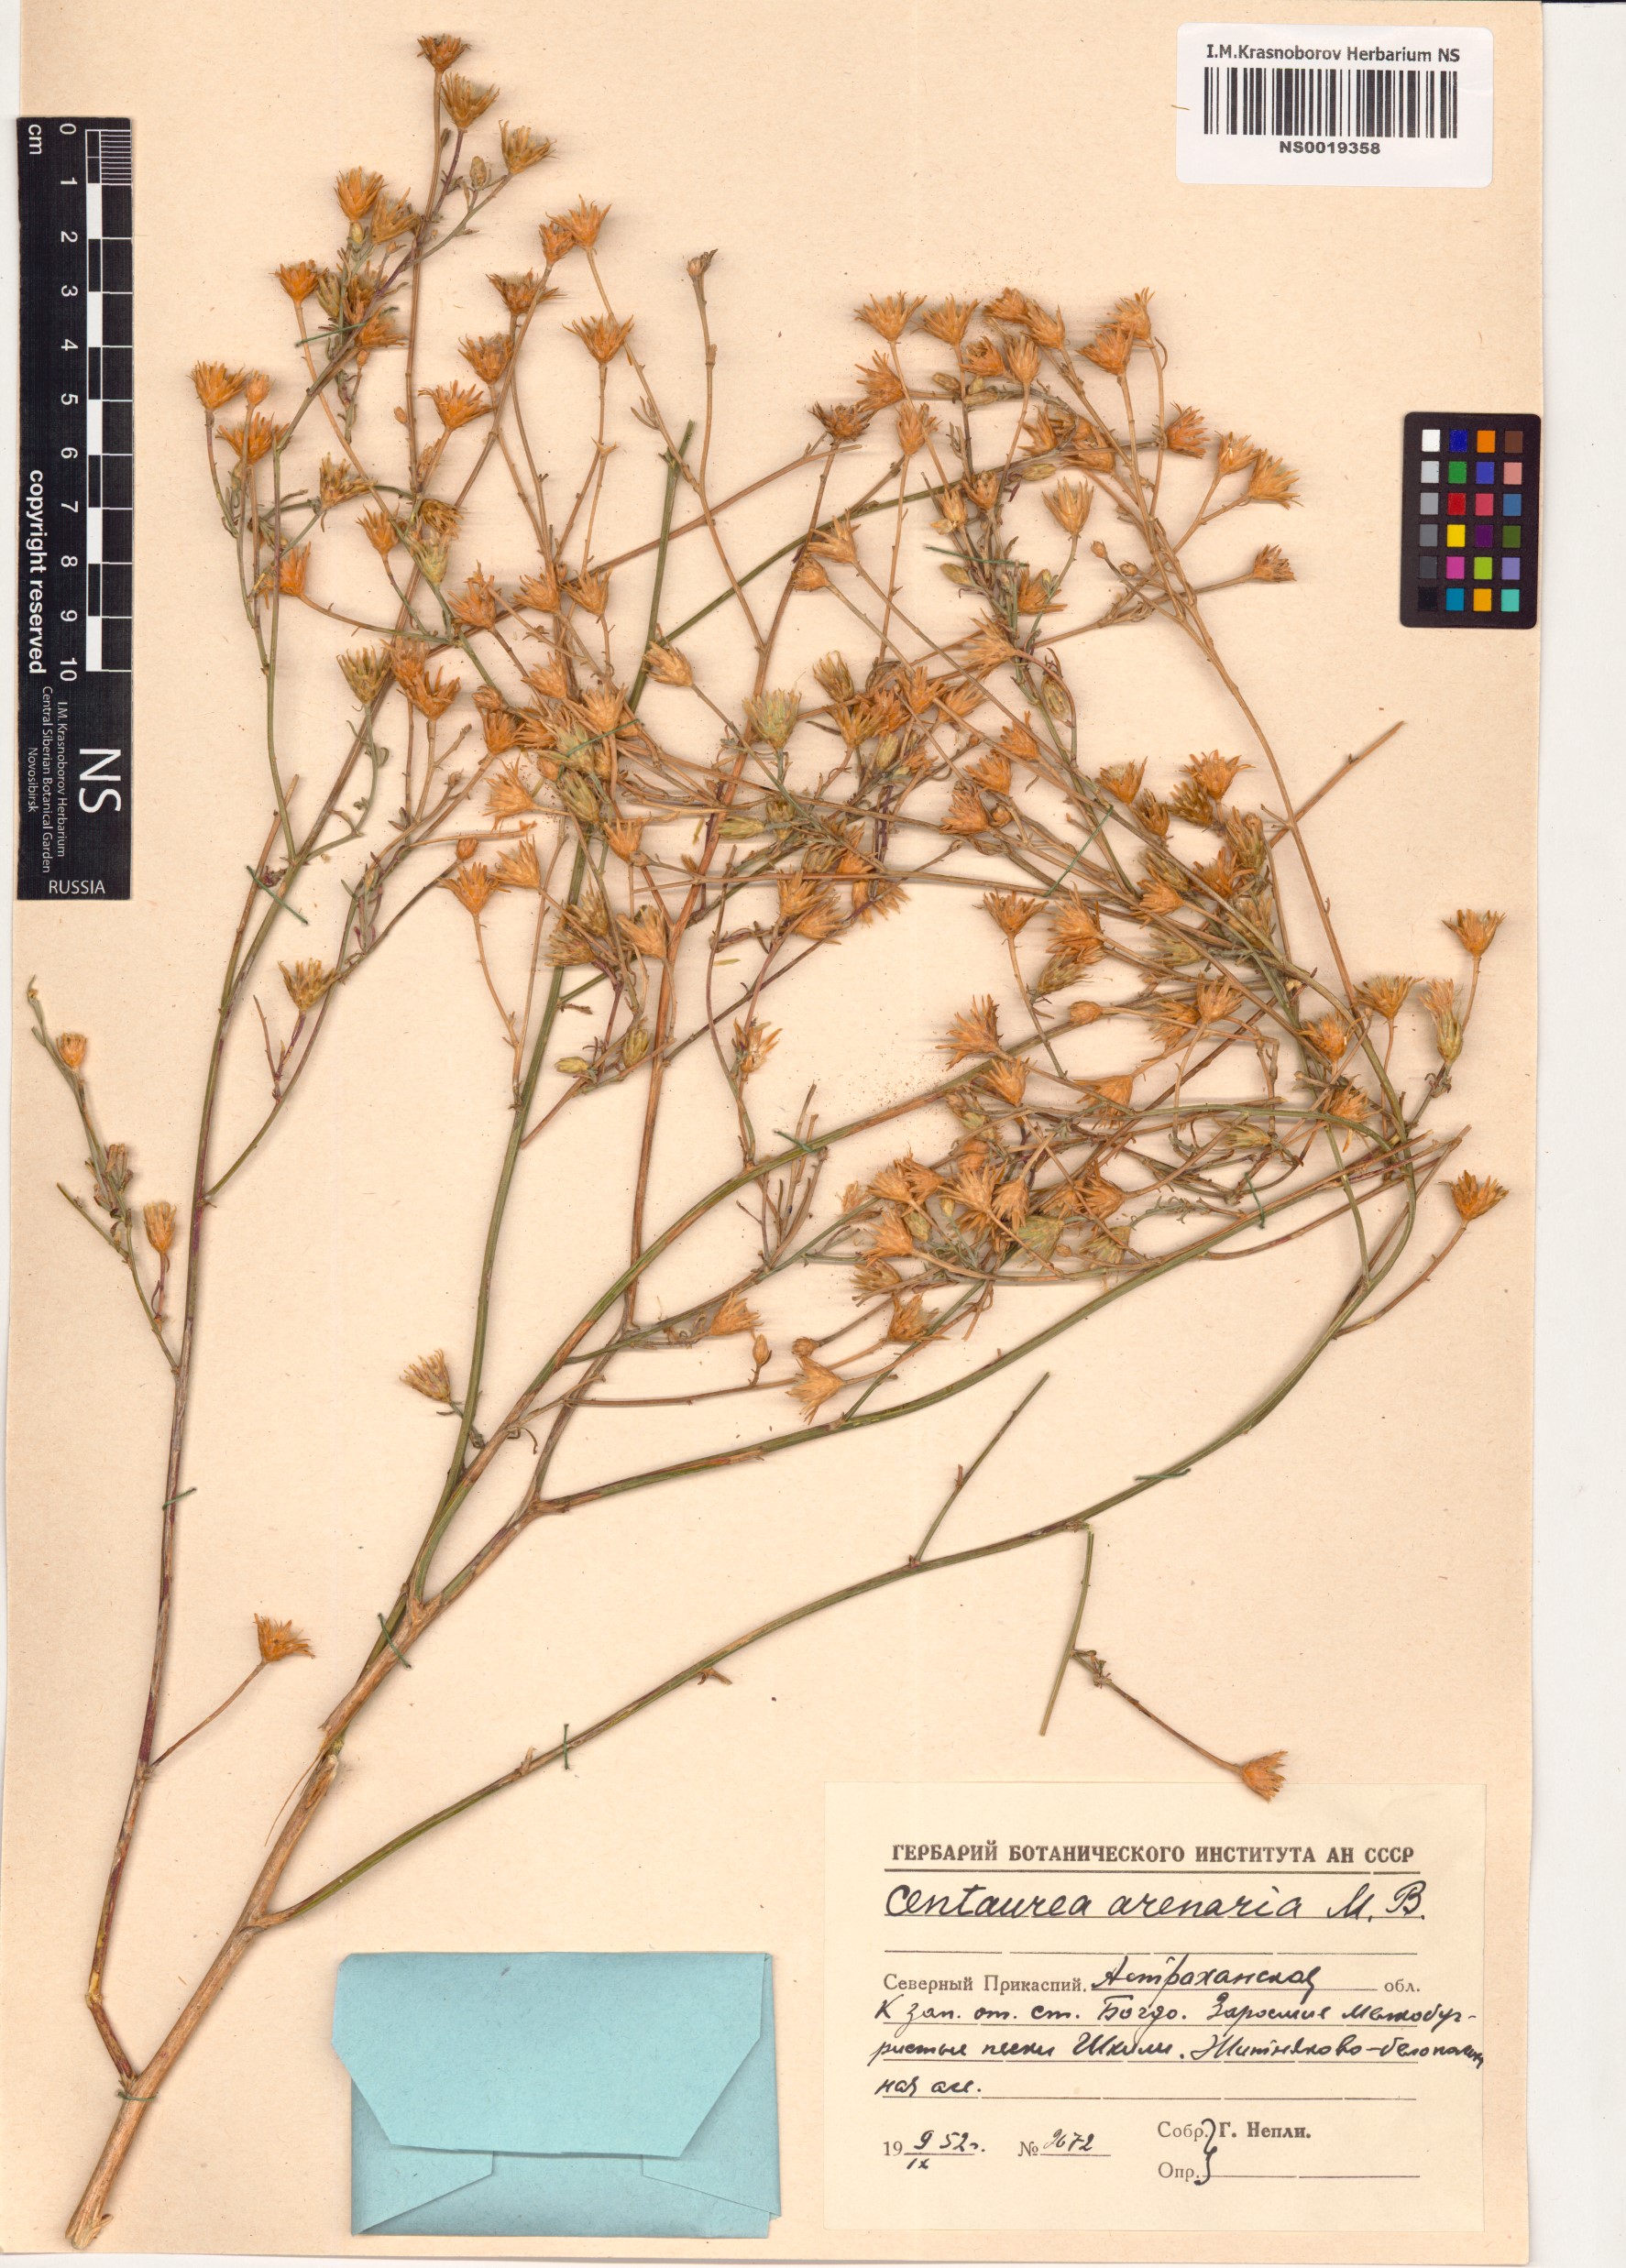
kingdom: Plantae
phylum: Tracheophyta
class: Magnoliopsida
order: Asterales
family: Asteraceae
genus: Centaurea
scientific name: Centaurea arenaria
